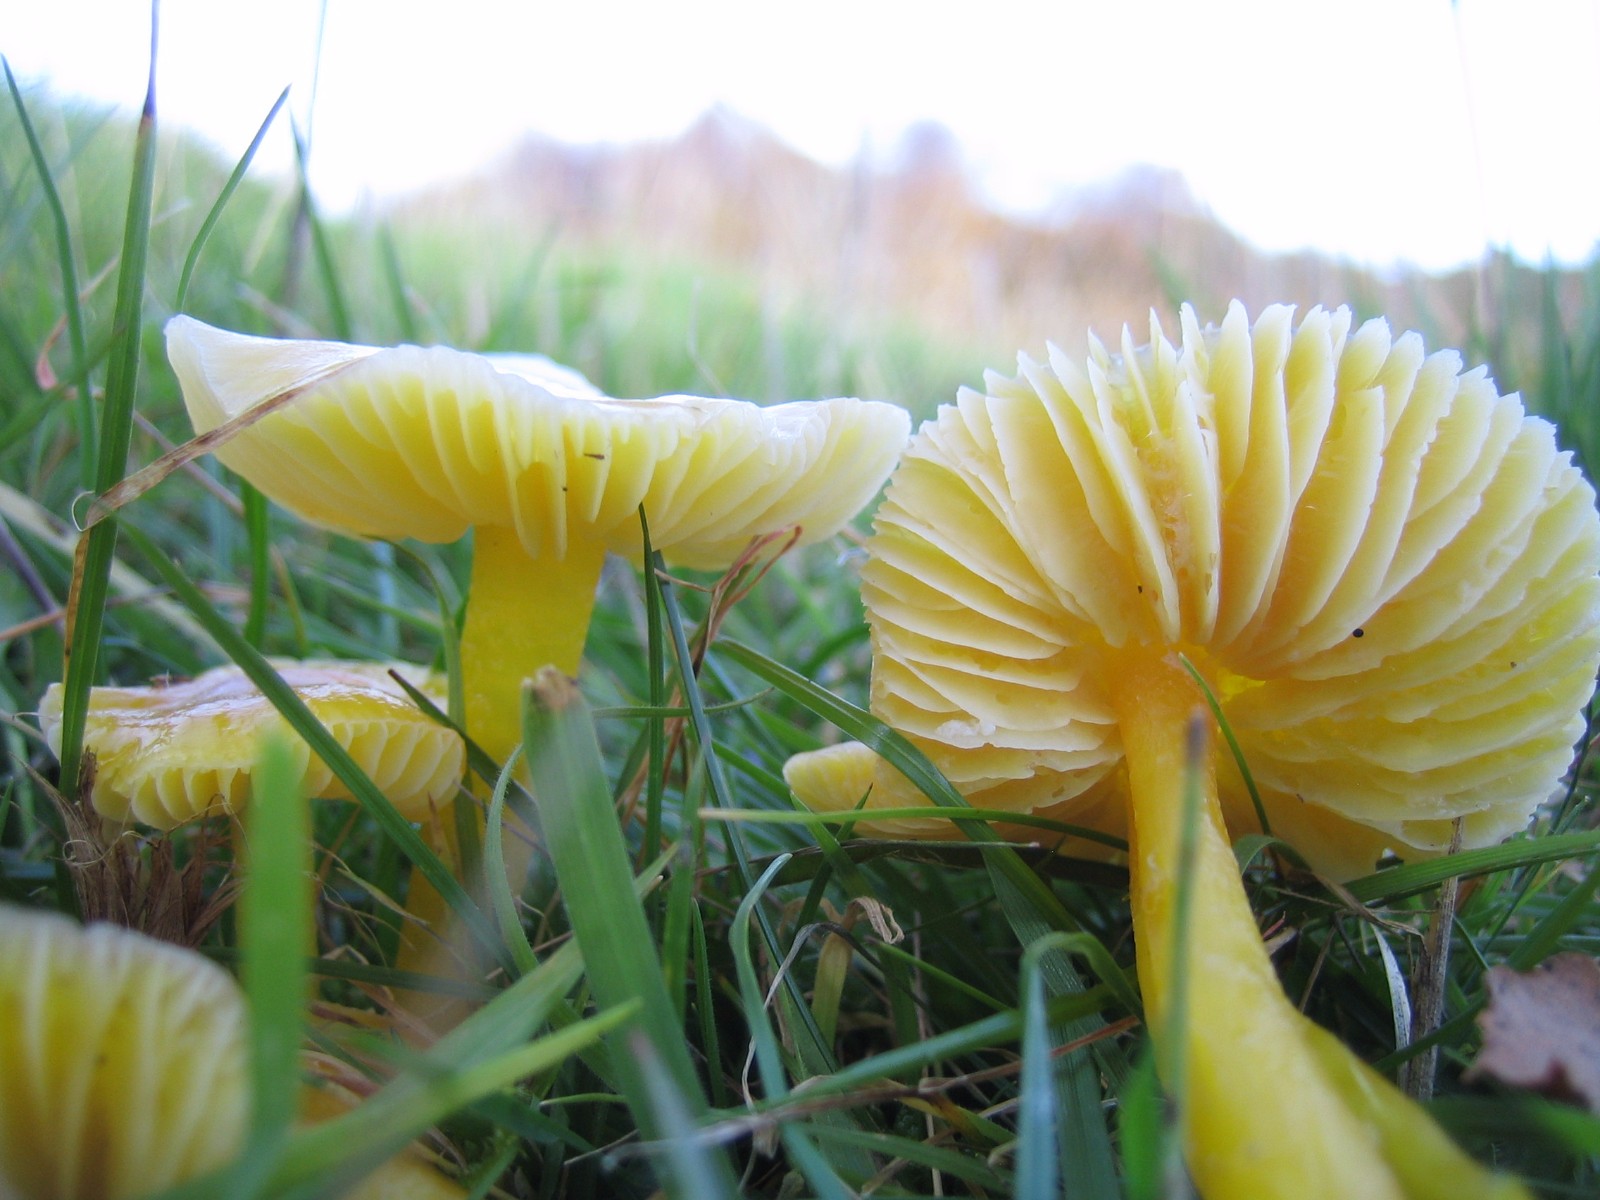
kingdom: Fungi
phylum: Basidiomycota
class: Agaricomycetes
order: Agaricales
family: Hygrophoraceae
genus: Hygrocybe
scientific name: Hygrocybe chlorophana
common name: gul vokshat
